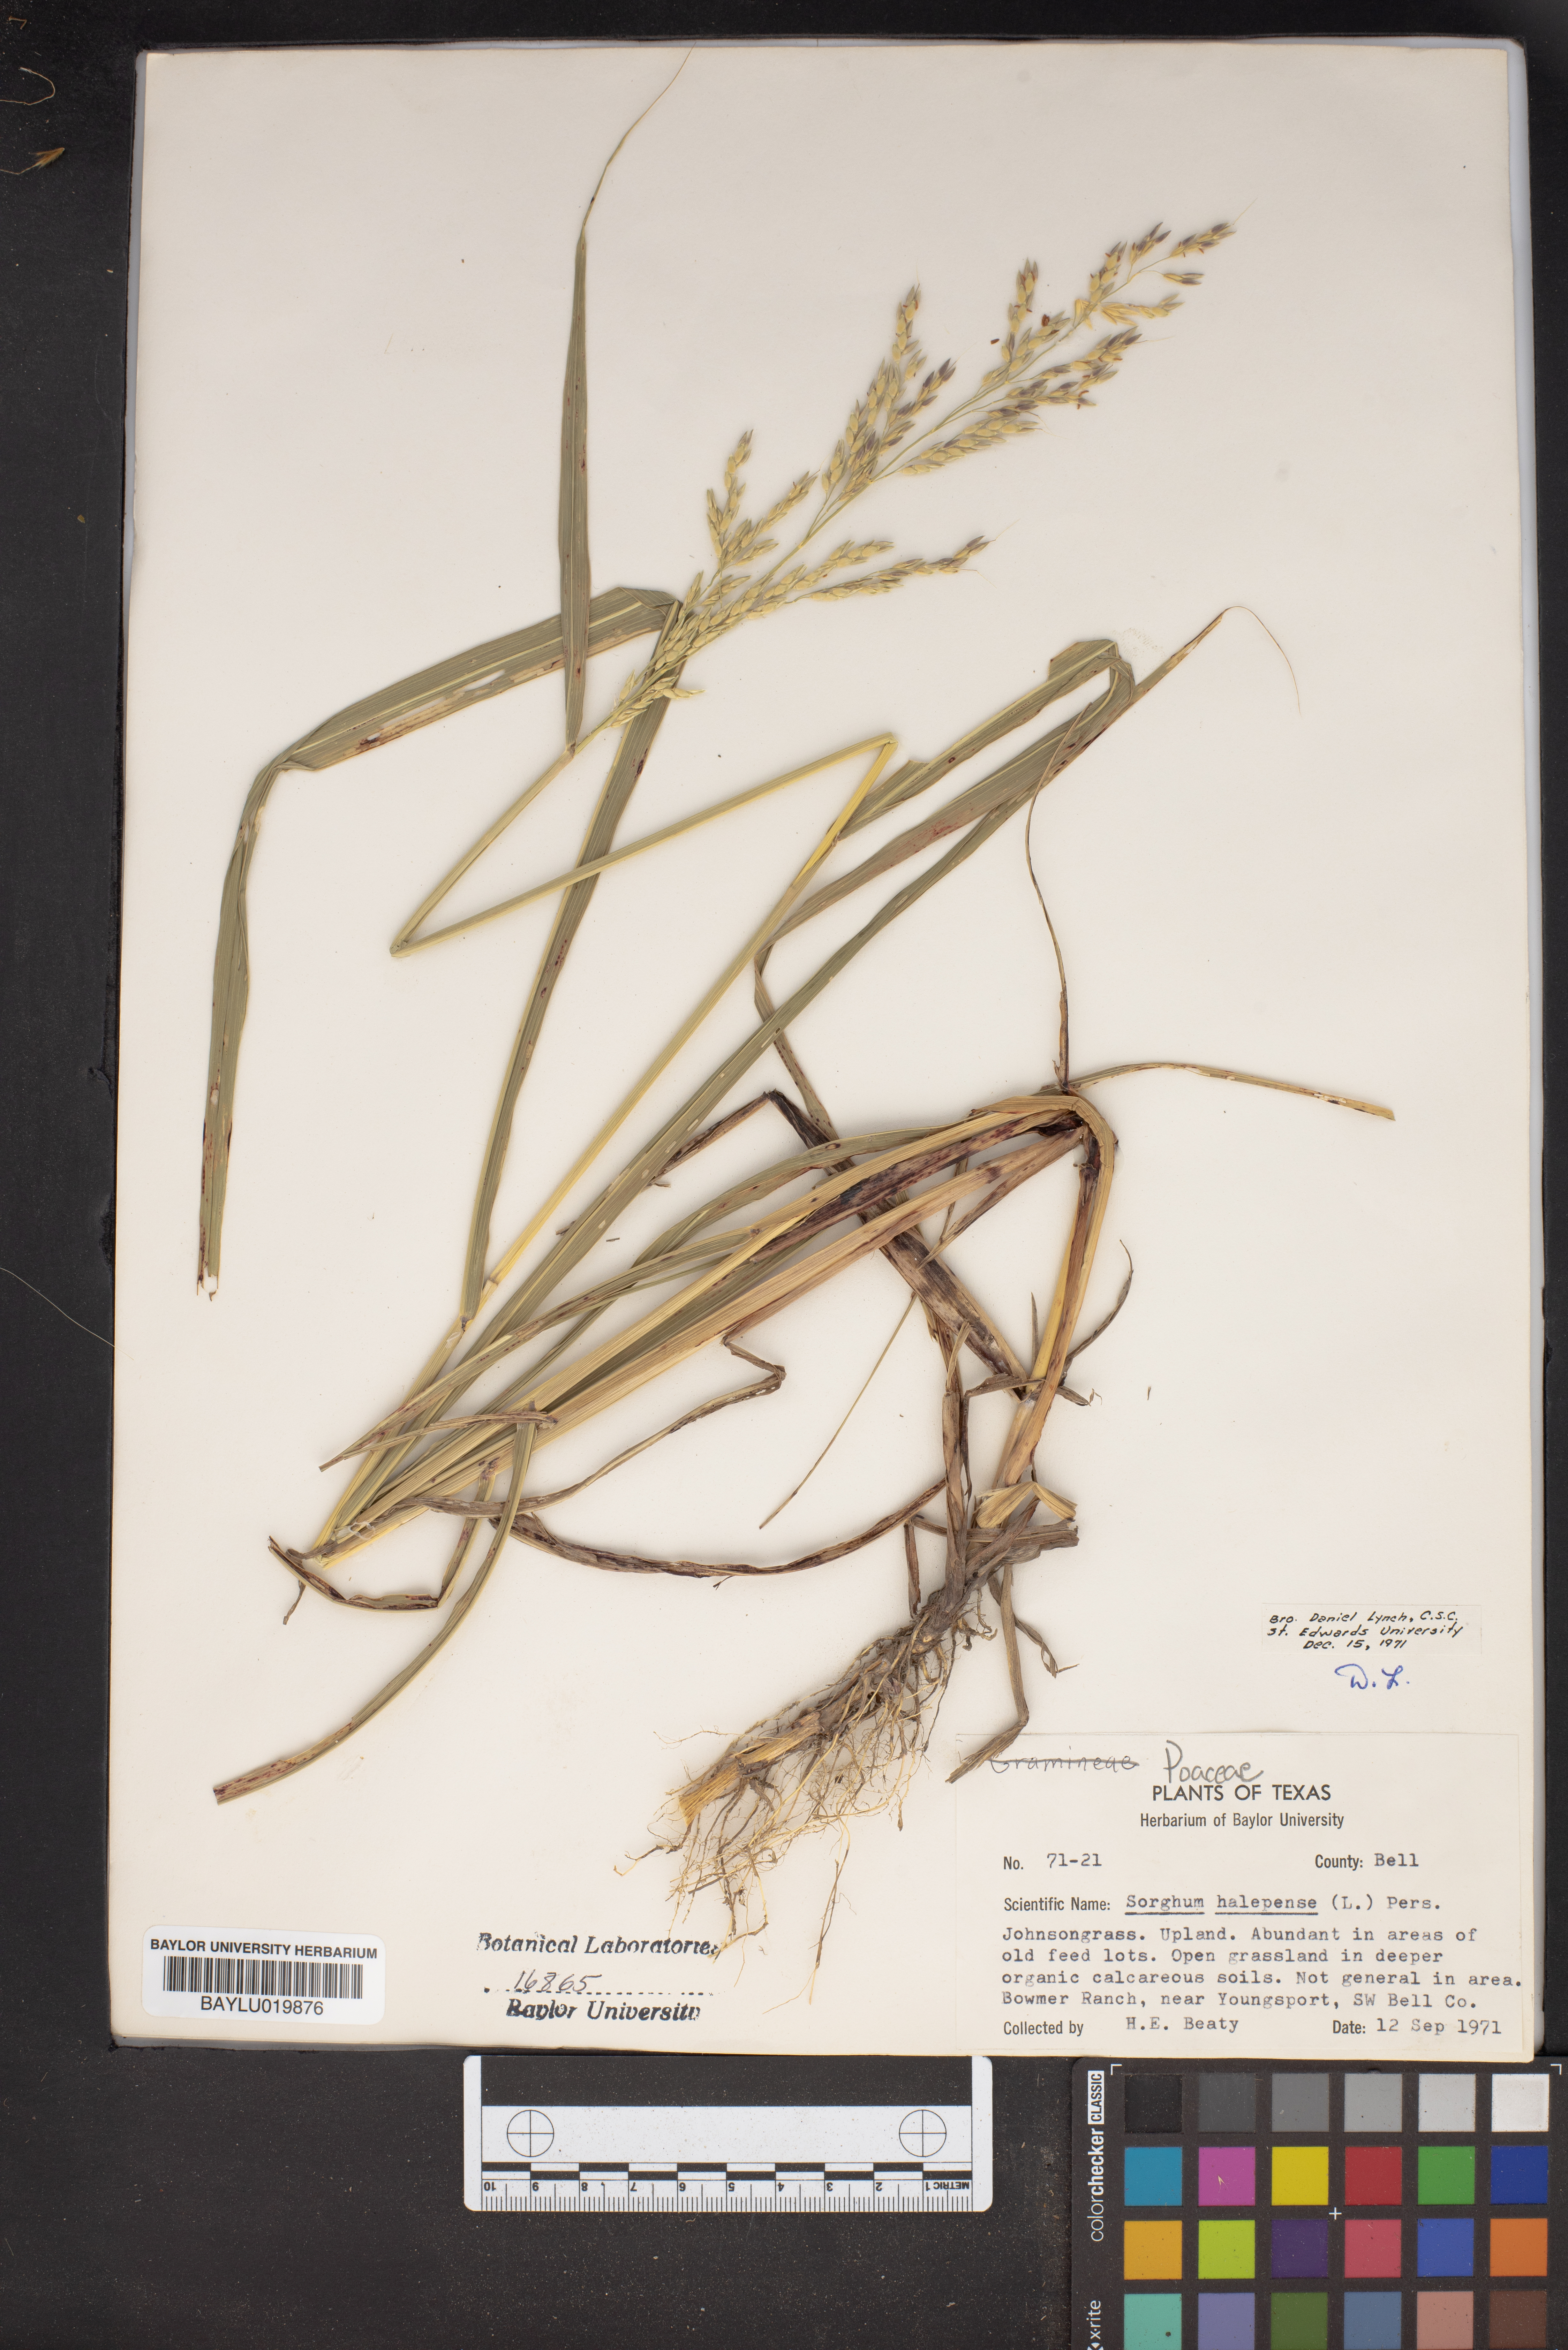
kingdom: Plantae
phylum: Tracheophyta
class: Liliopsida
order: Poales
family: Poaceae
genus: Sorghum
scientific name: Sorghum halepense
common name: Johnson-grass
